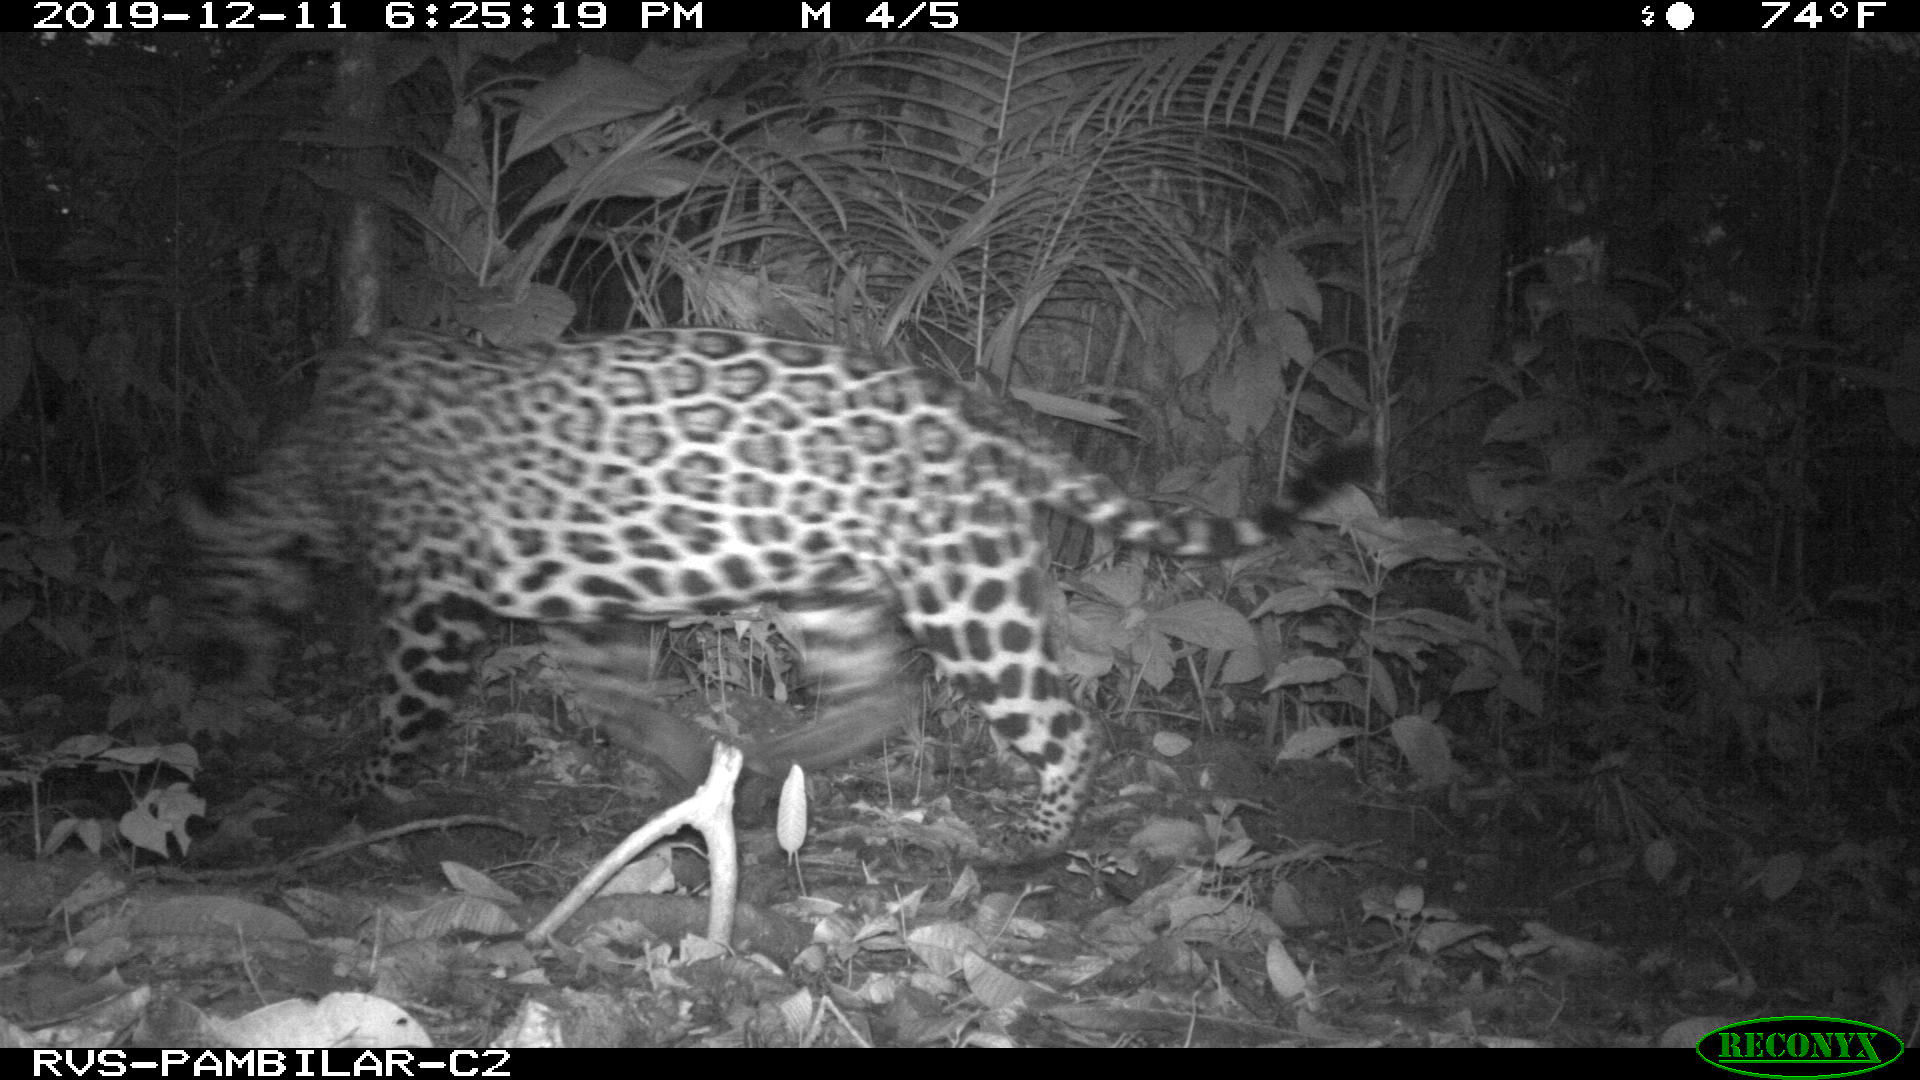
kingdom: Animalia
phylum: Chordata
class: Mammalia
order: Carnivora
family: Felidae
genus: Panthera
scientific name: Panthera onca
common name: Jaguar
